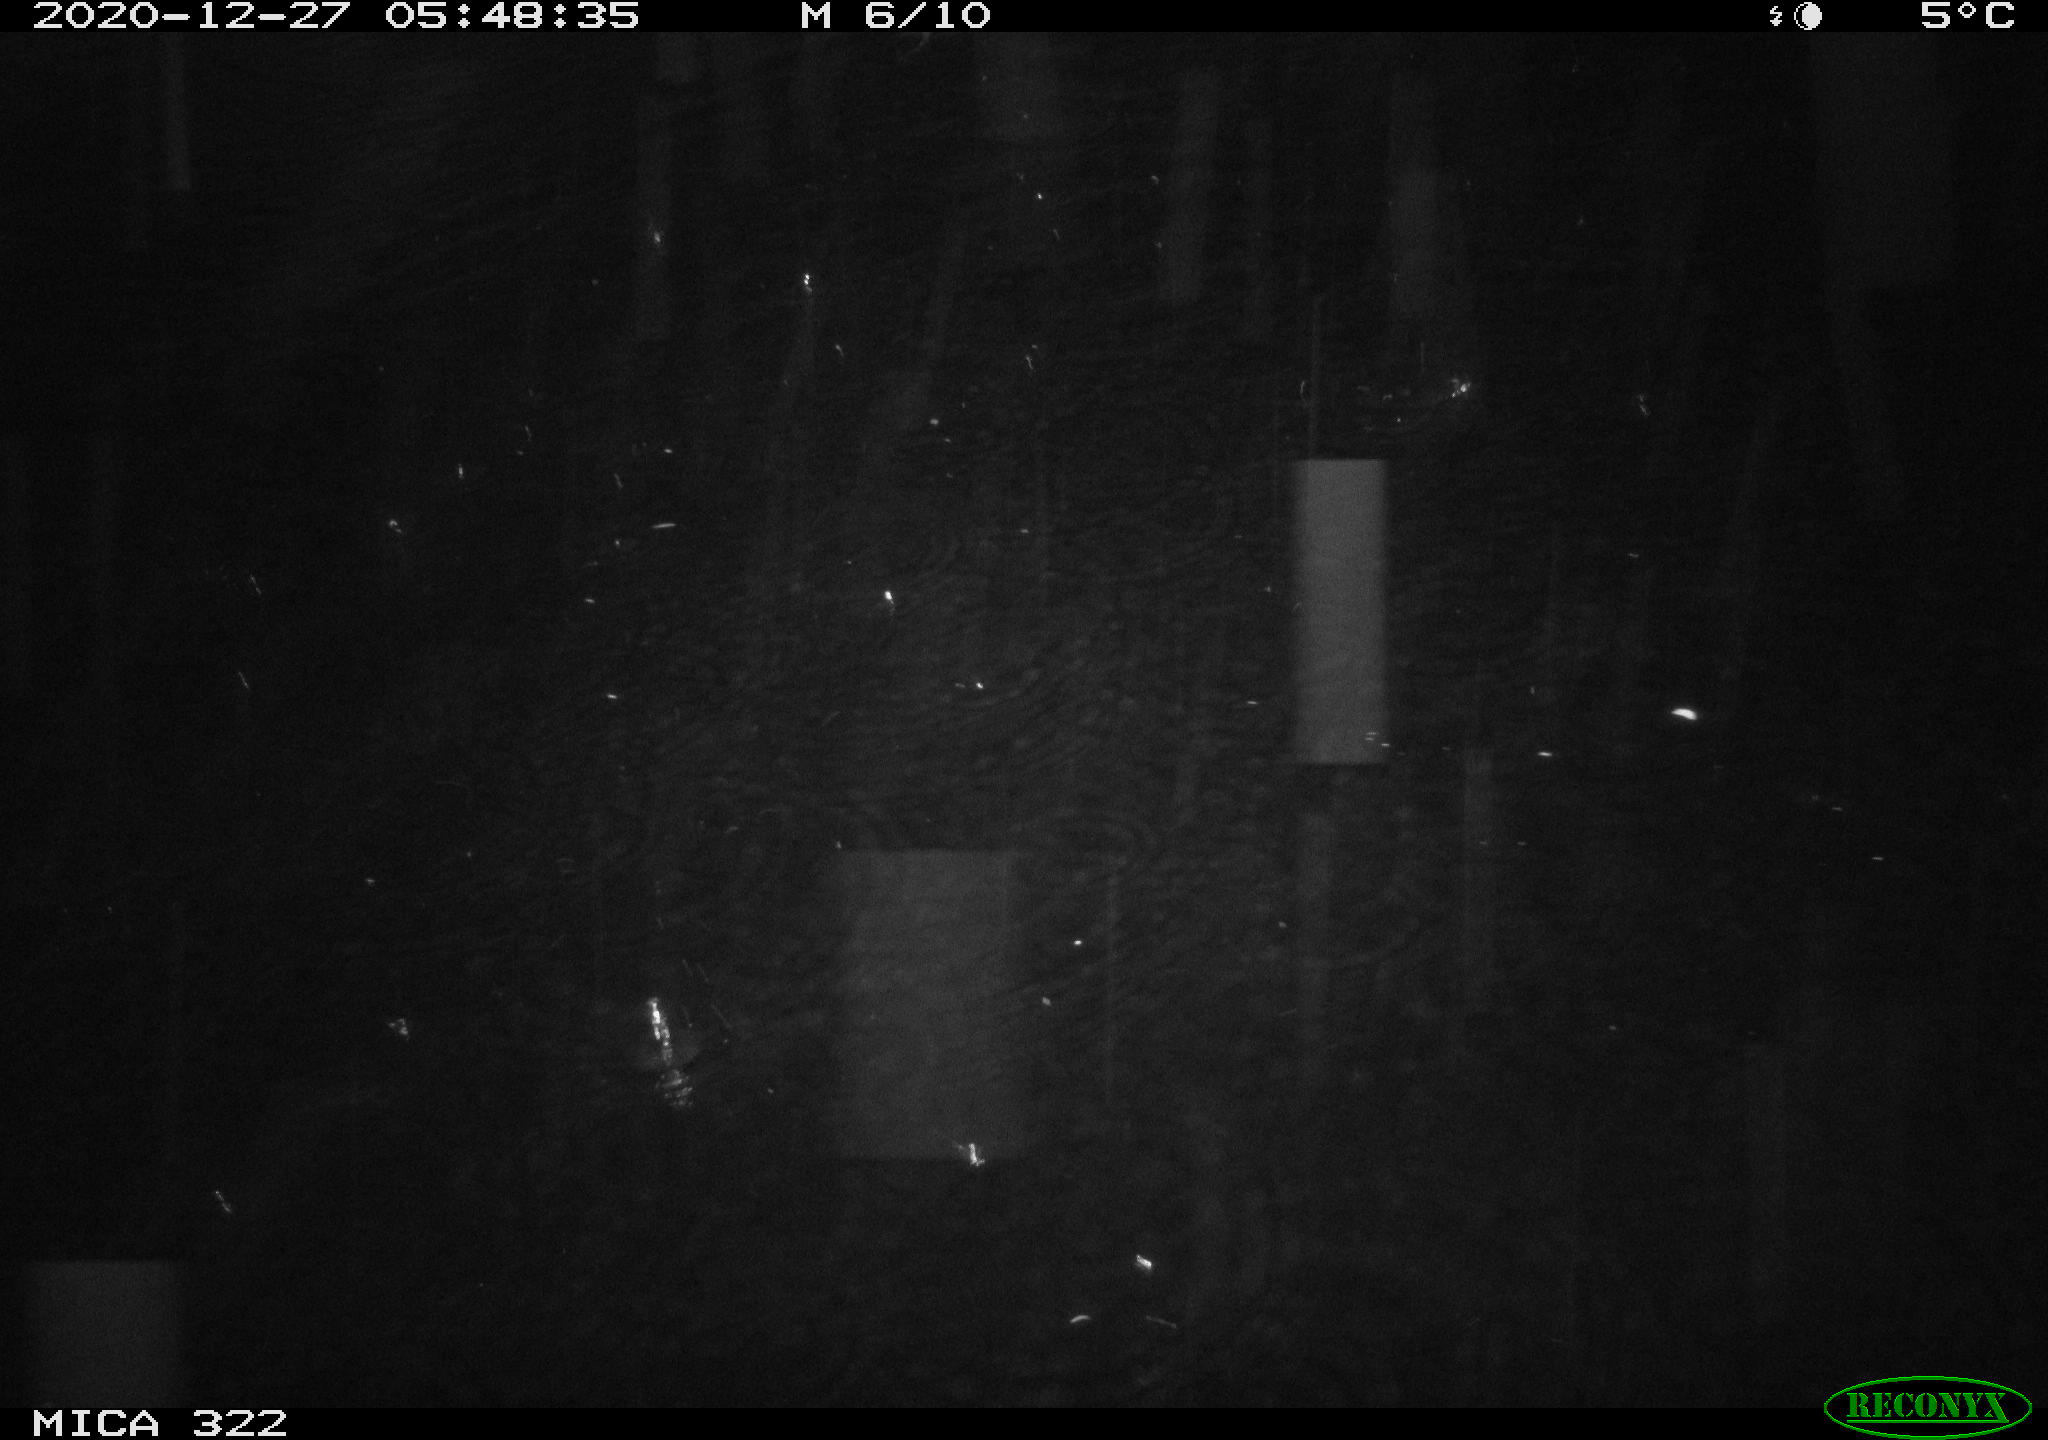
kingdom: Animalia
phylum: Chordata
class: Mammalia
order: Rodentia
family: Muridae
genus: Rattus
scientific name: Rattus norvegicus
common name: Brown rat
